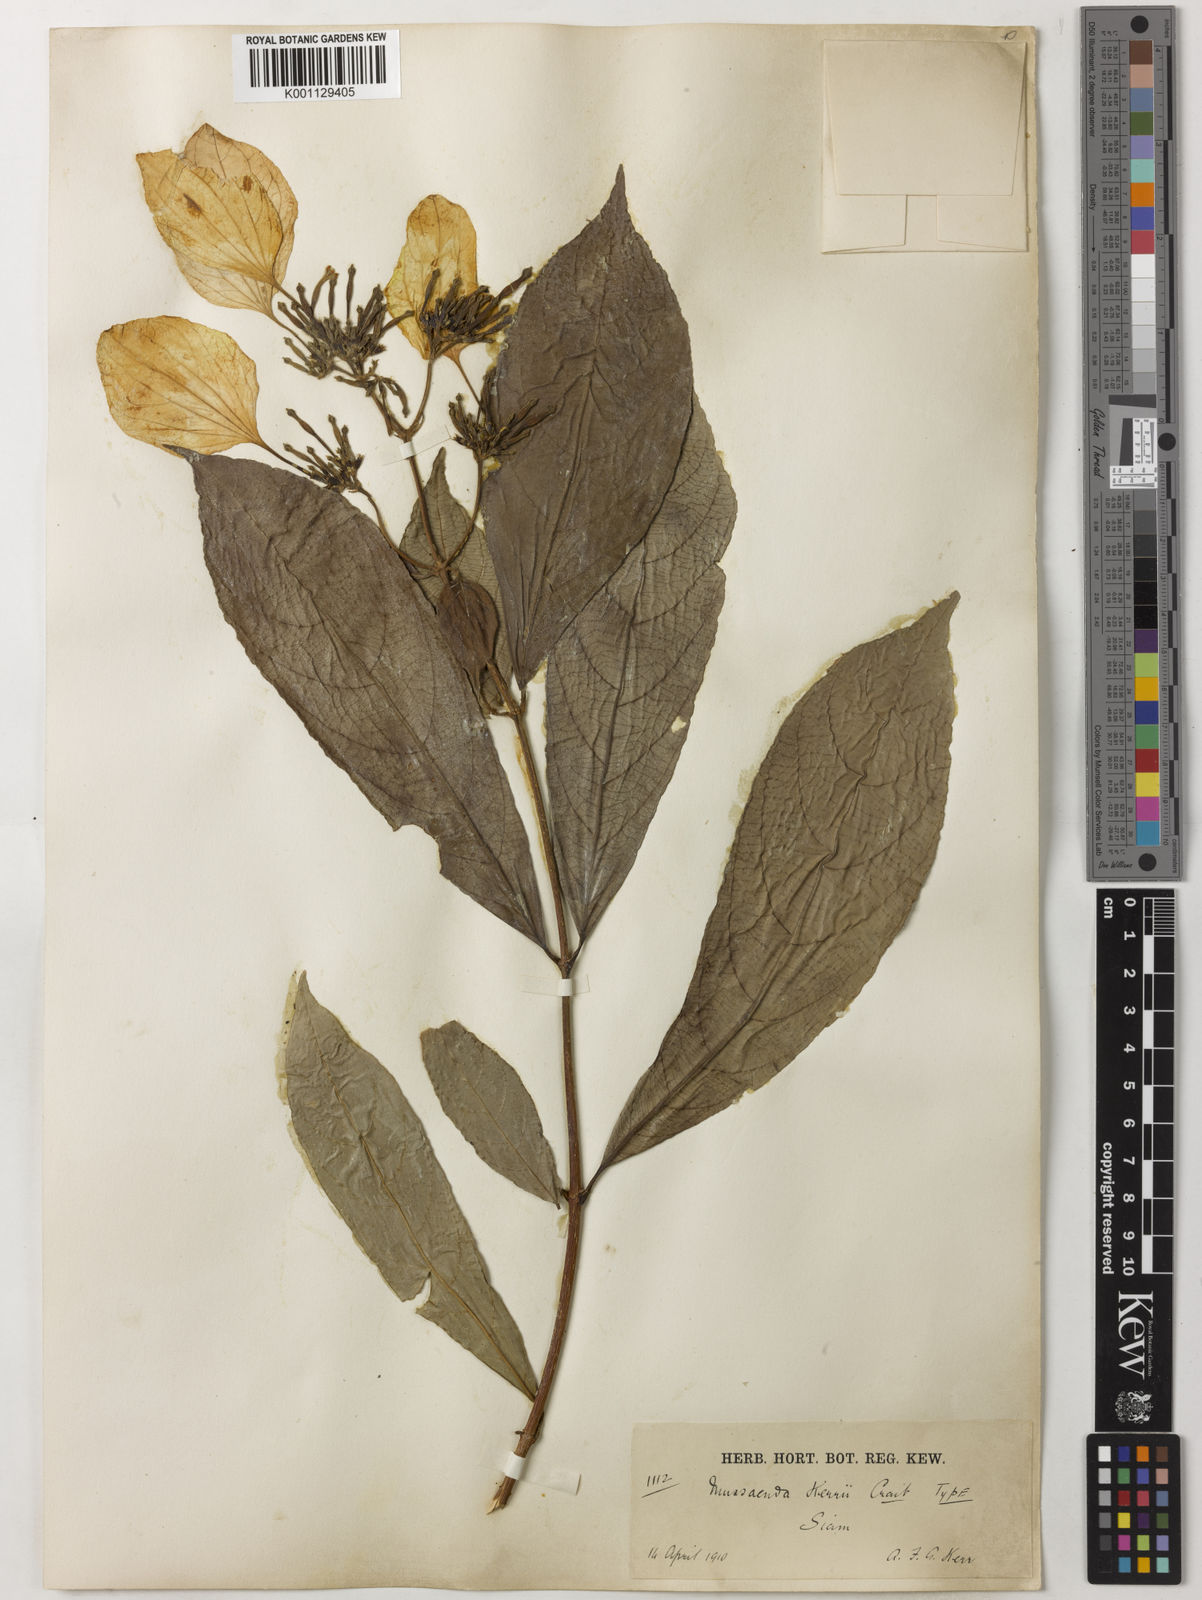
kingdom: Plantae
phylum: Tracheophyta
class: Magnoliopsida
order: Gentianales
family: Rubiaceae
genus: Mussaenda
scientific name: Mussaenda kerrii
